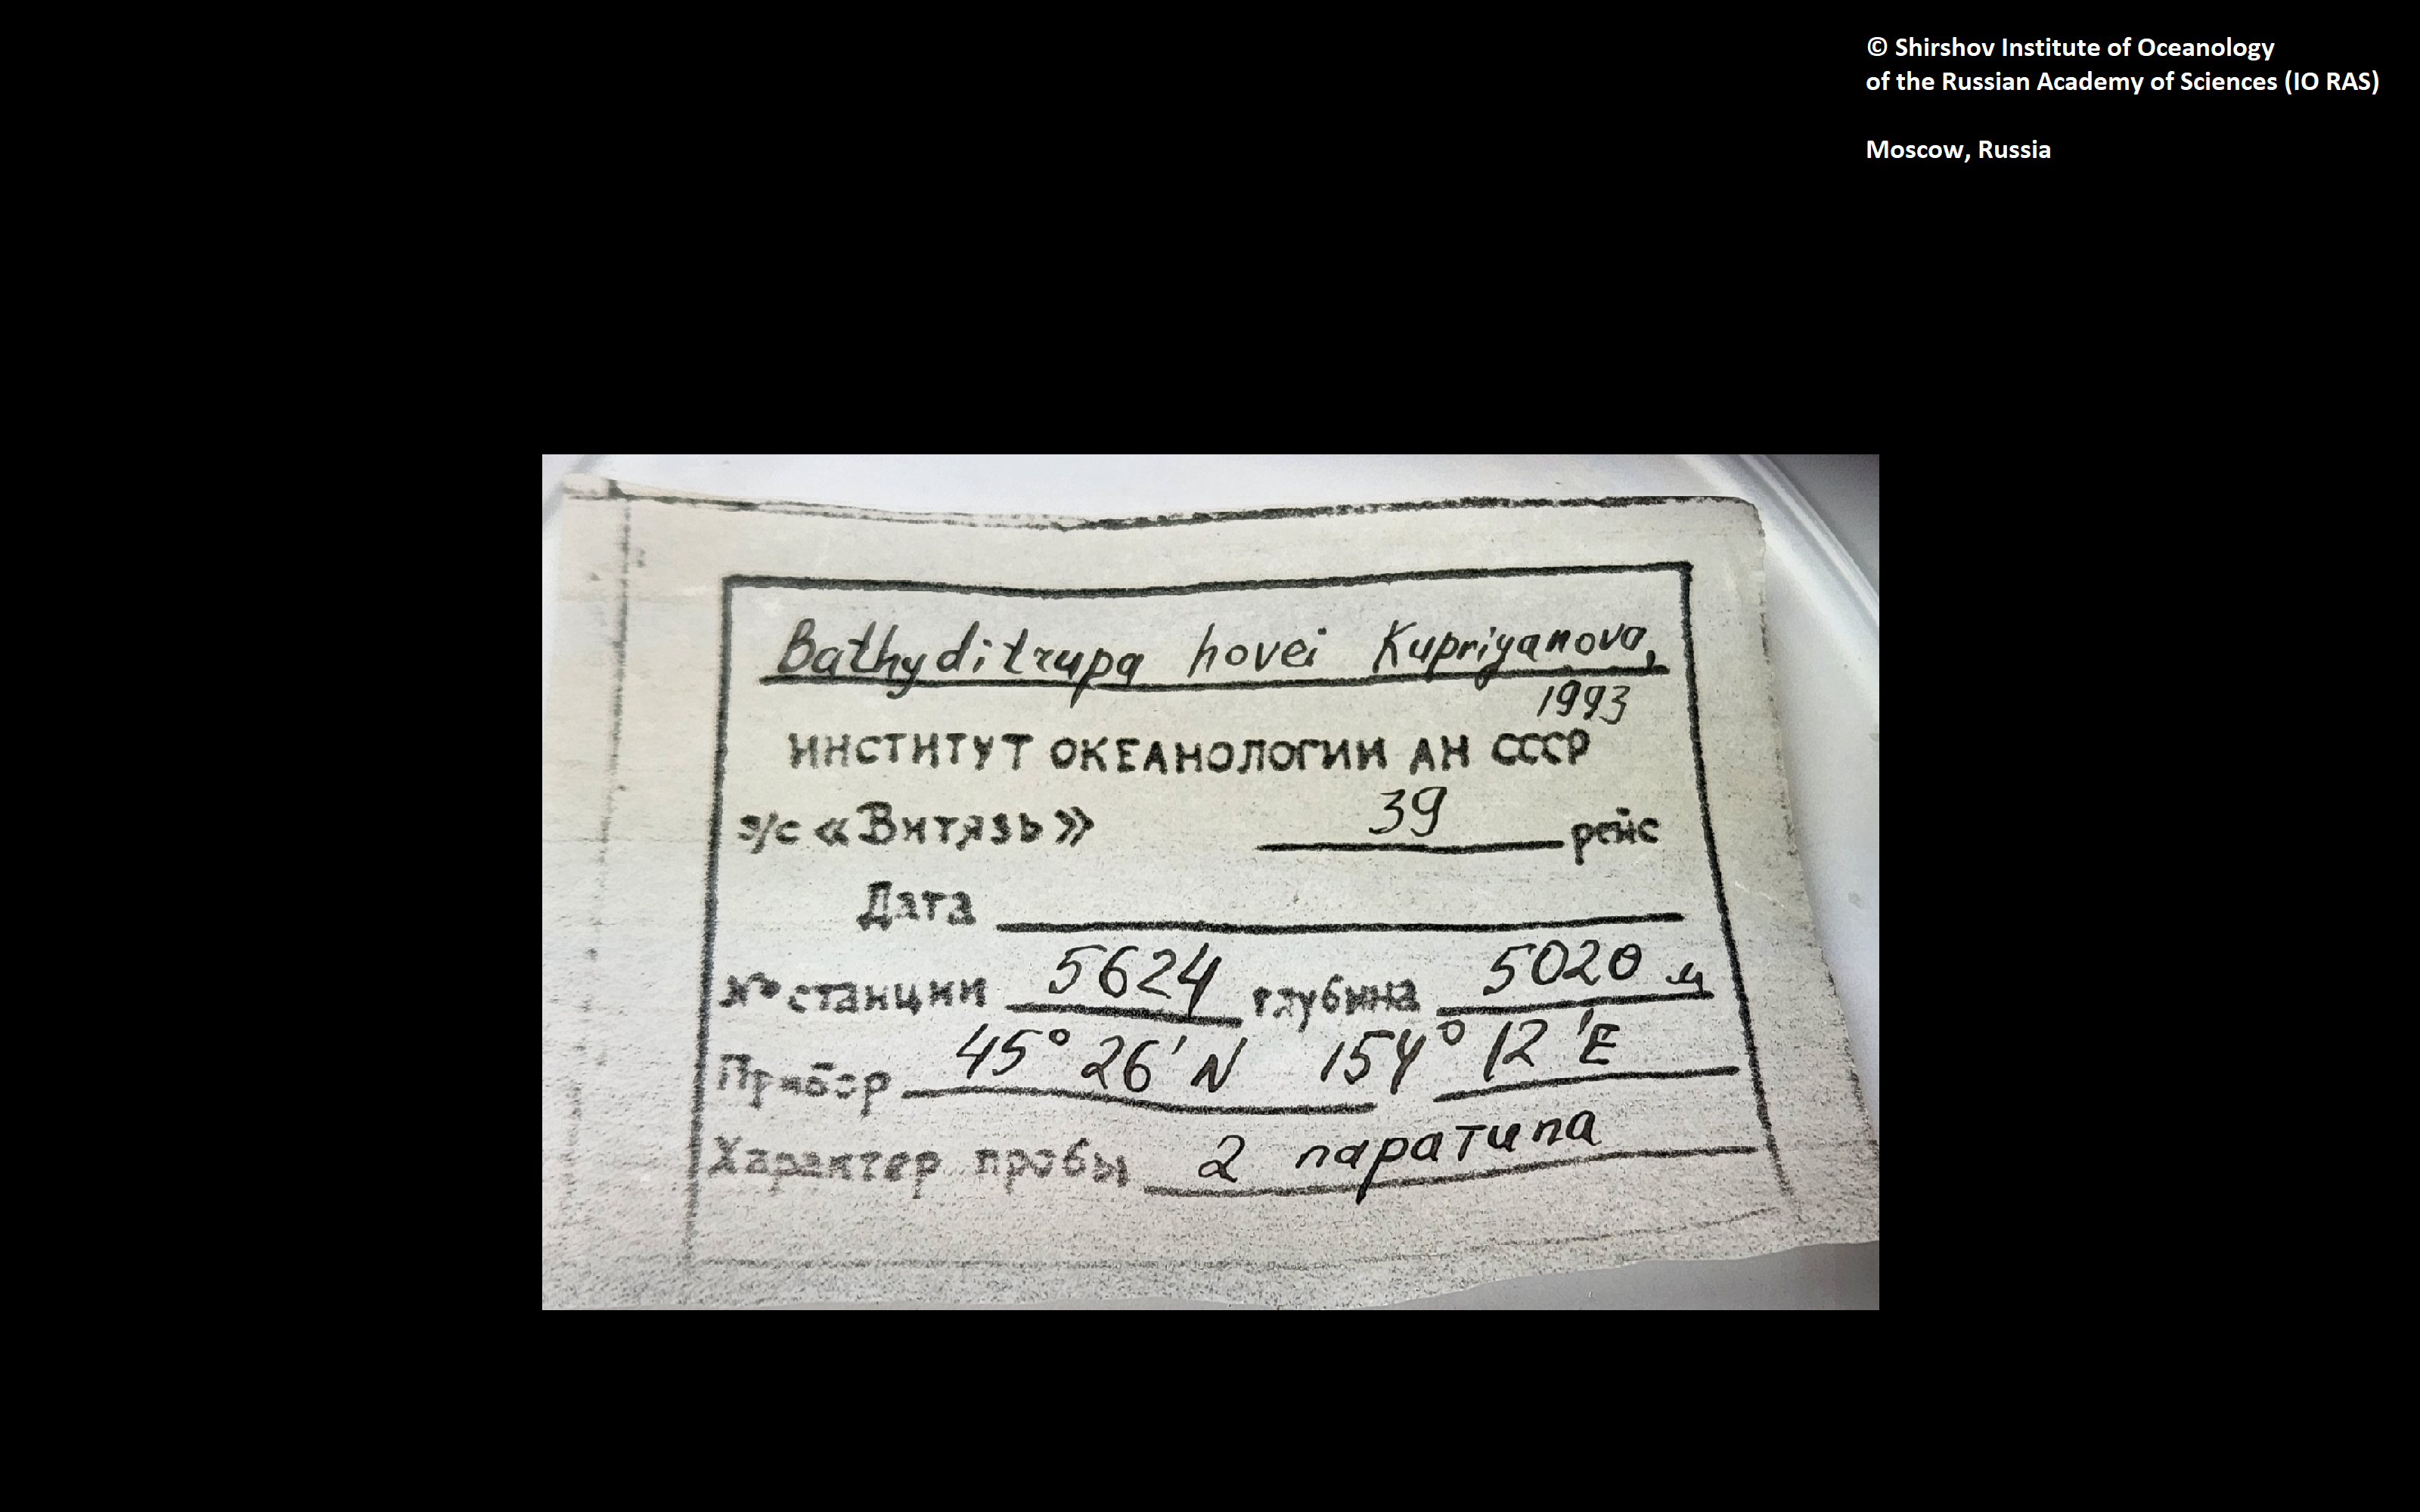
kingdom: Animalia
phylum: Annelida
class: Polychaeta
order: Sabellida
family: Serpulidae
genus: Bathyditrupa
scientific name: Bathyditrupa hovei
